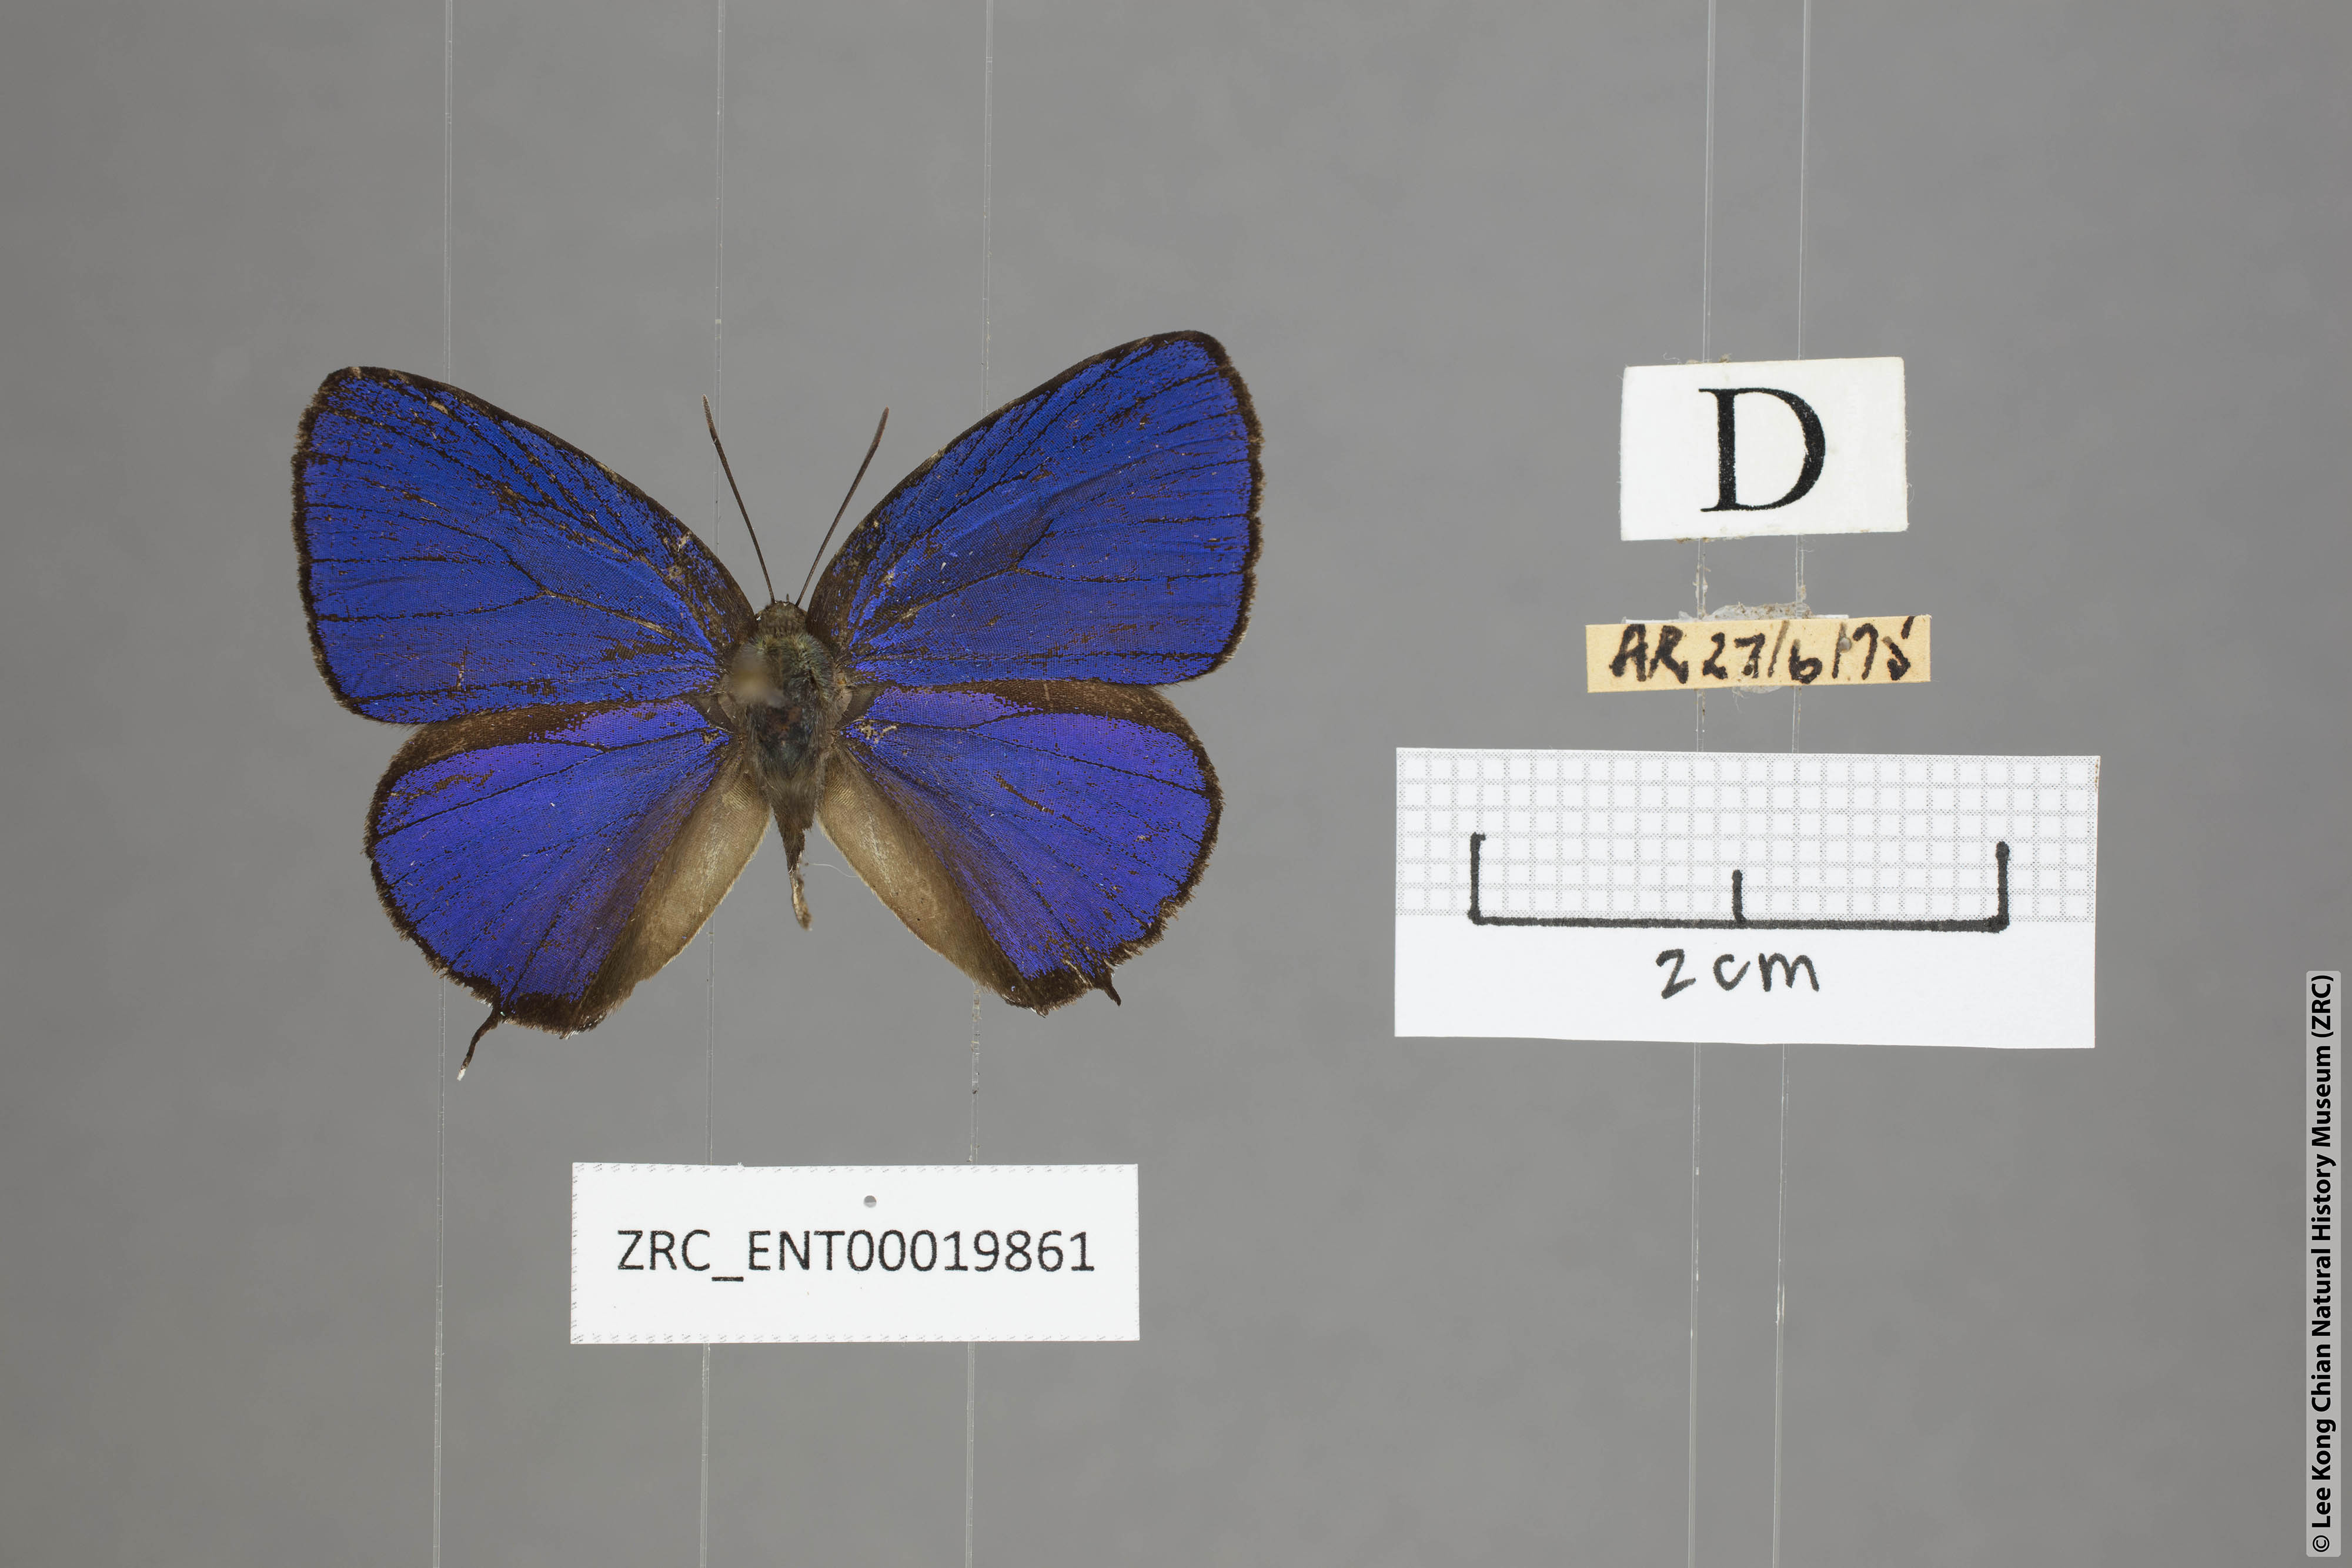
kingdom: Animalia
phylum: Arthropoda
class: Insecta
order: Lepidoptera
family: Lycaenidae
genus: Arhopala
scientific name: Arhopala sublustris
